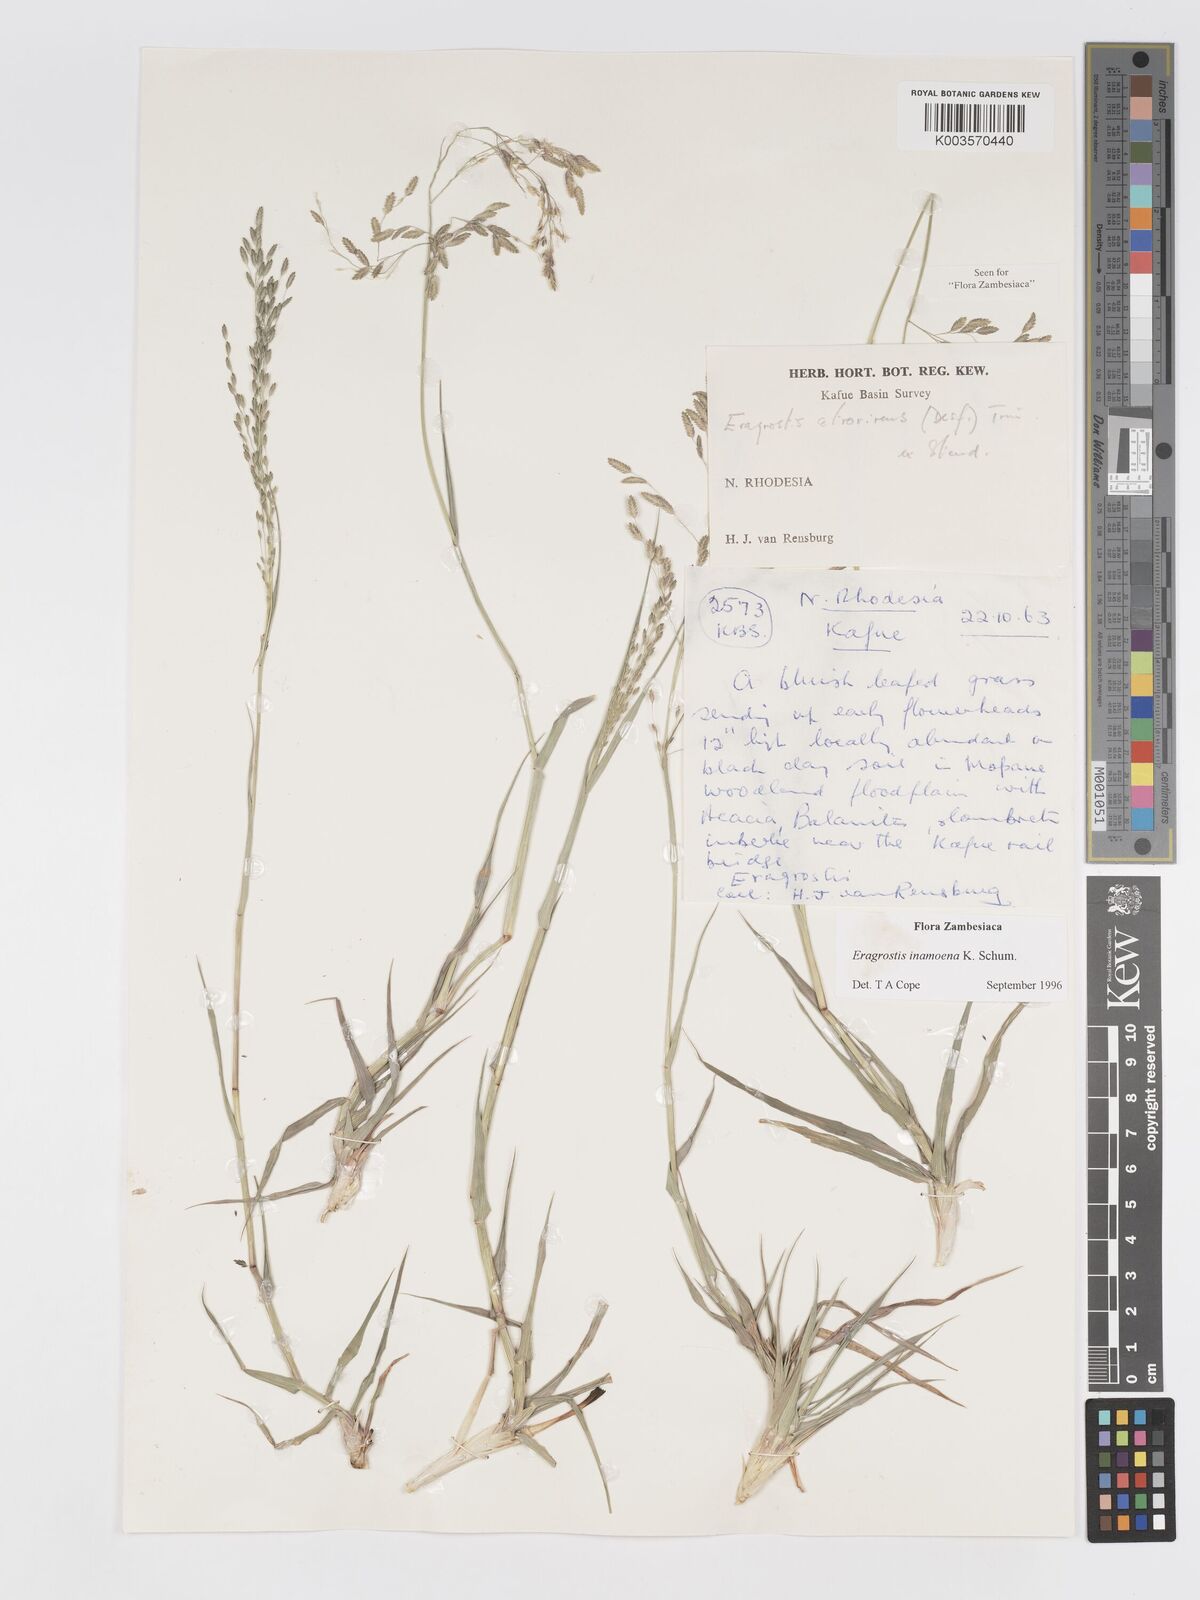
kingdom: Plantae
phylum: Tracheophyta
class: Liliopsida
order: Poales
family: Poaceae
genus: Eragrostis
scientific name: Eragrostis inamoena
